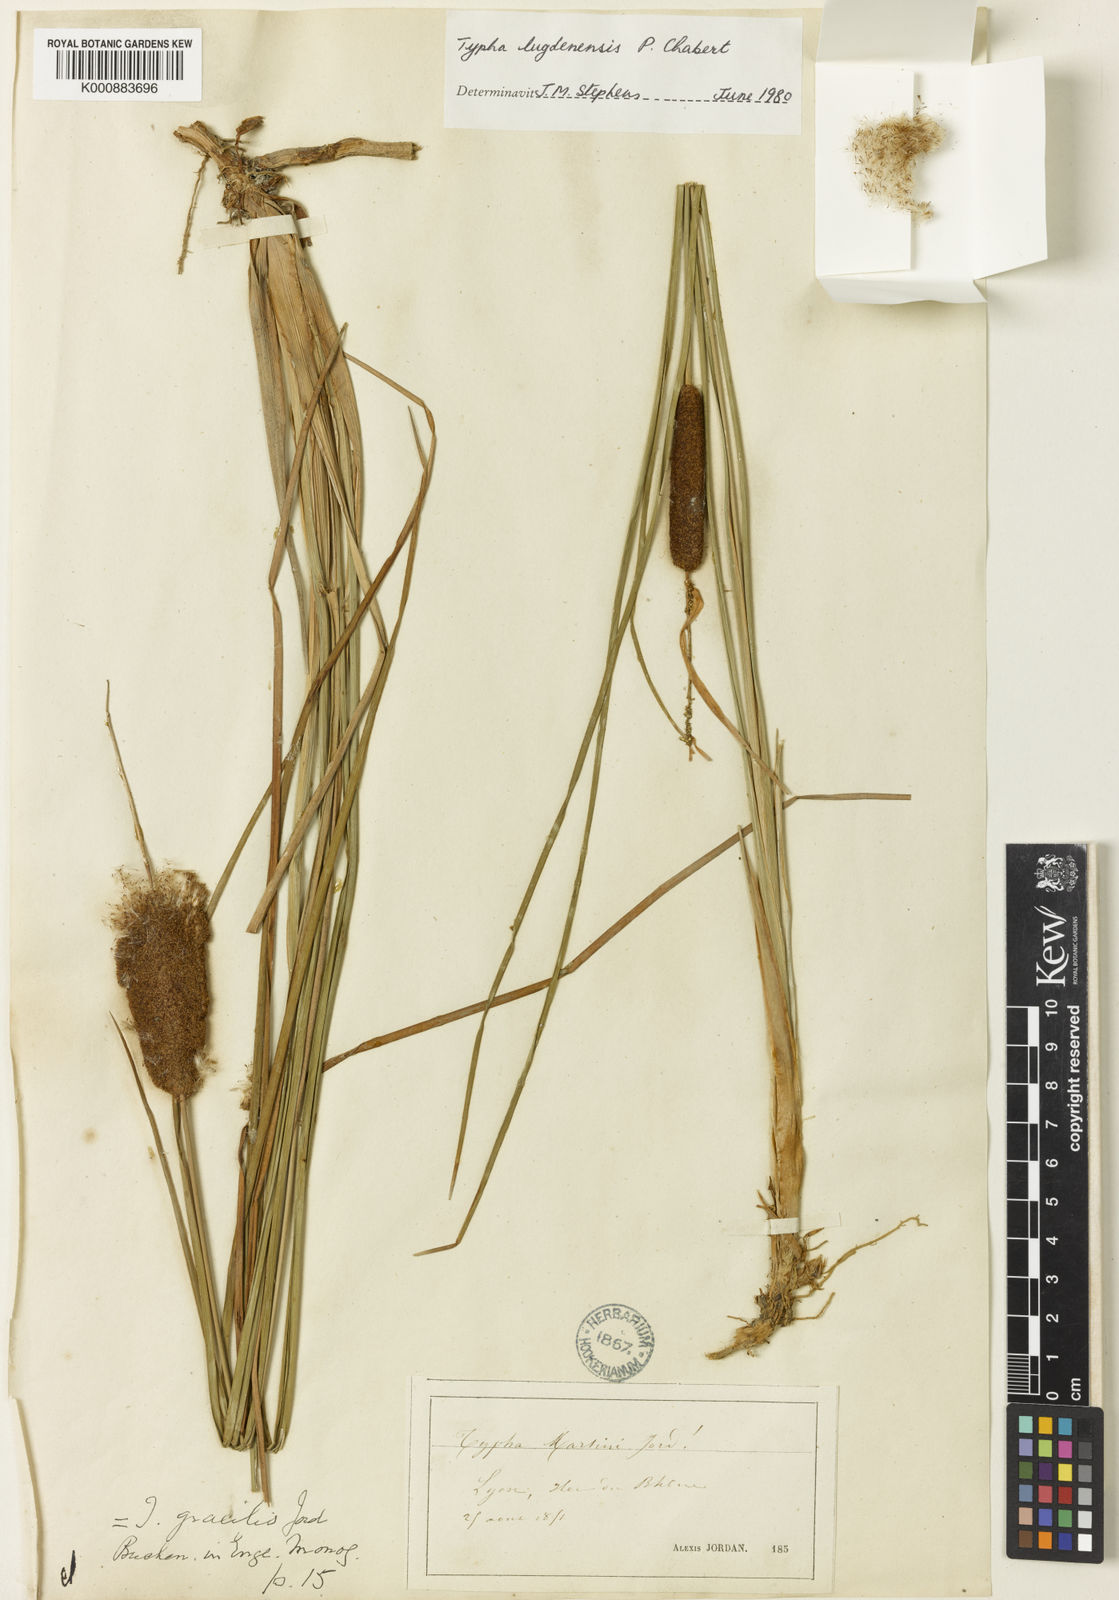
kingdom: Plantae
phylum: Tracheophyta
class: Liliopsida
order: Poales
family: Typhaceae
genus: Typha
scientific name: Typha lugdunensis
